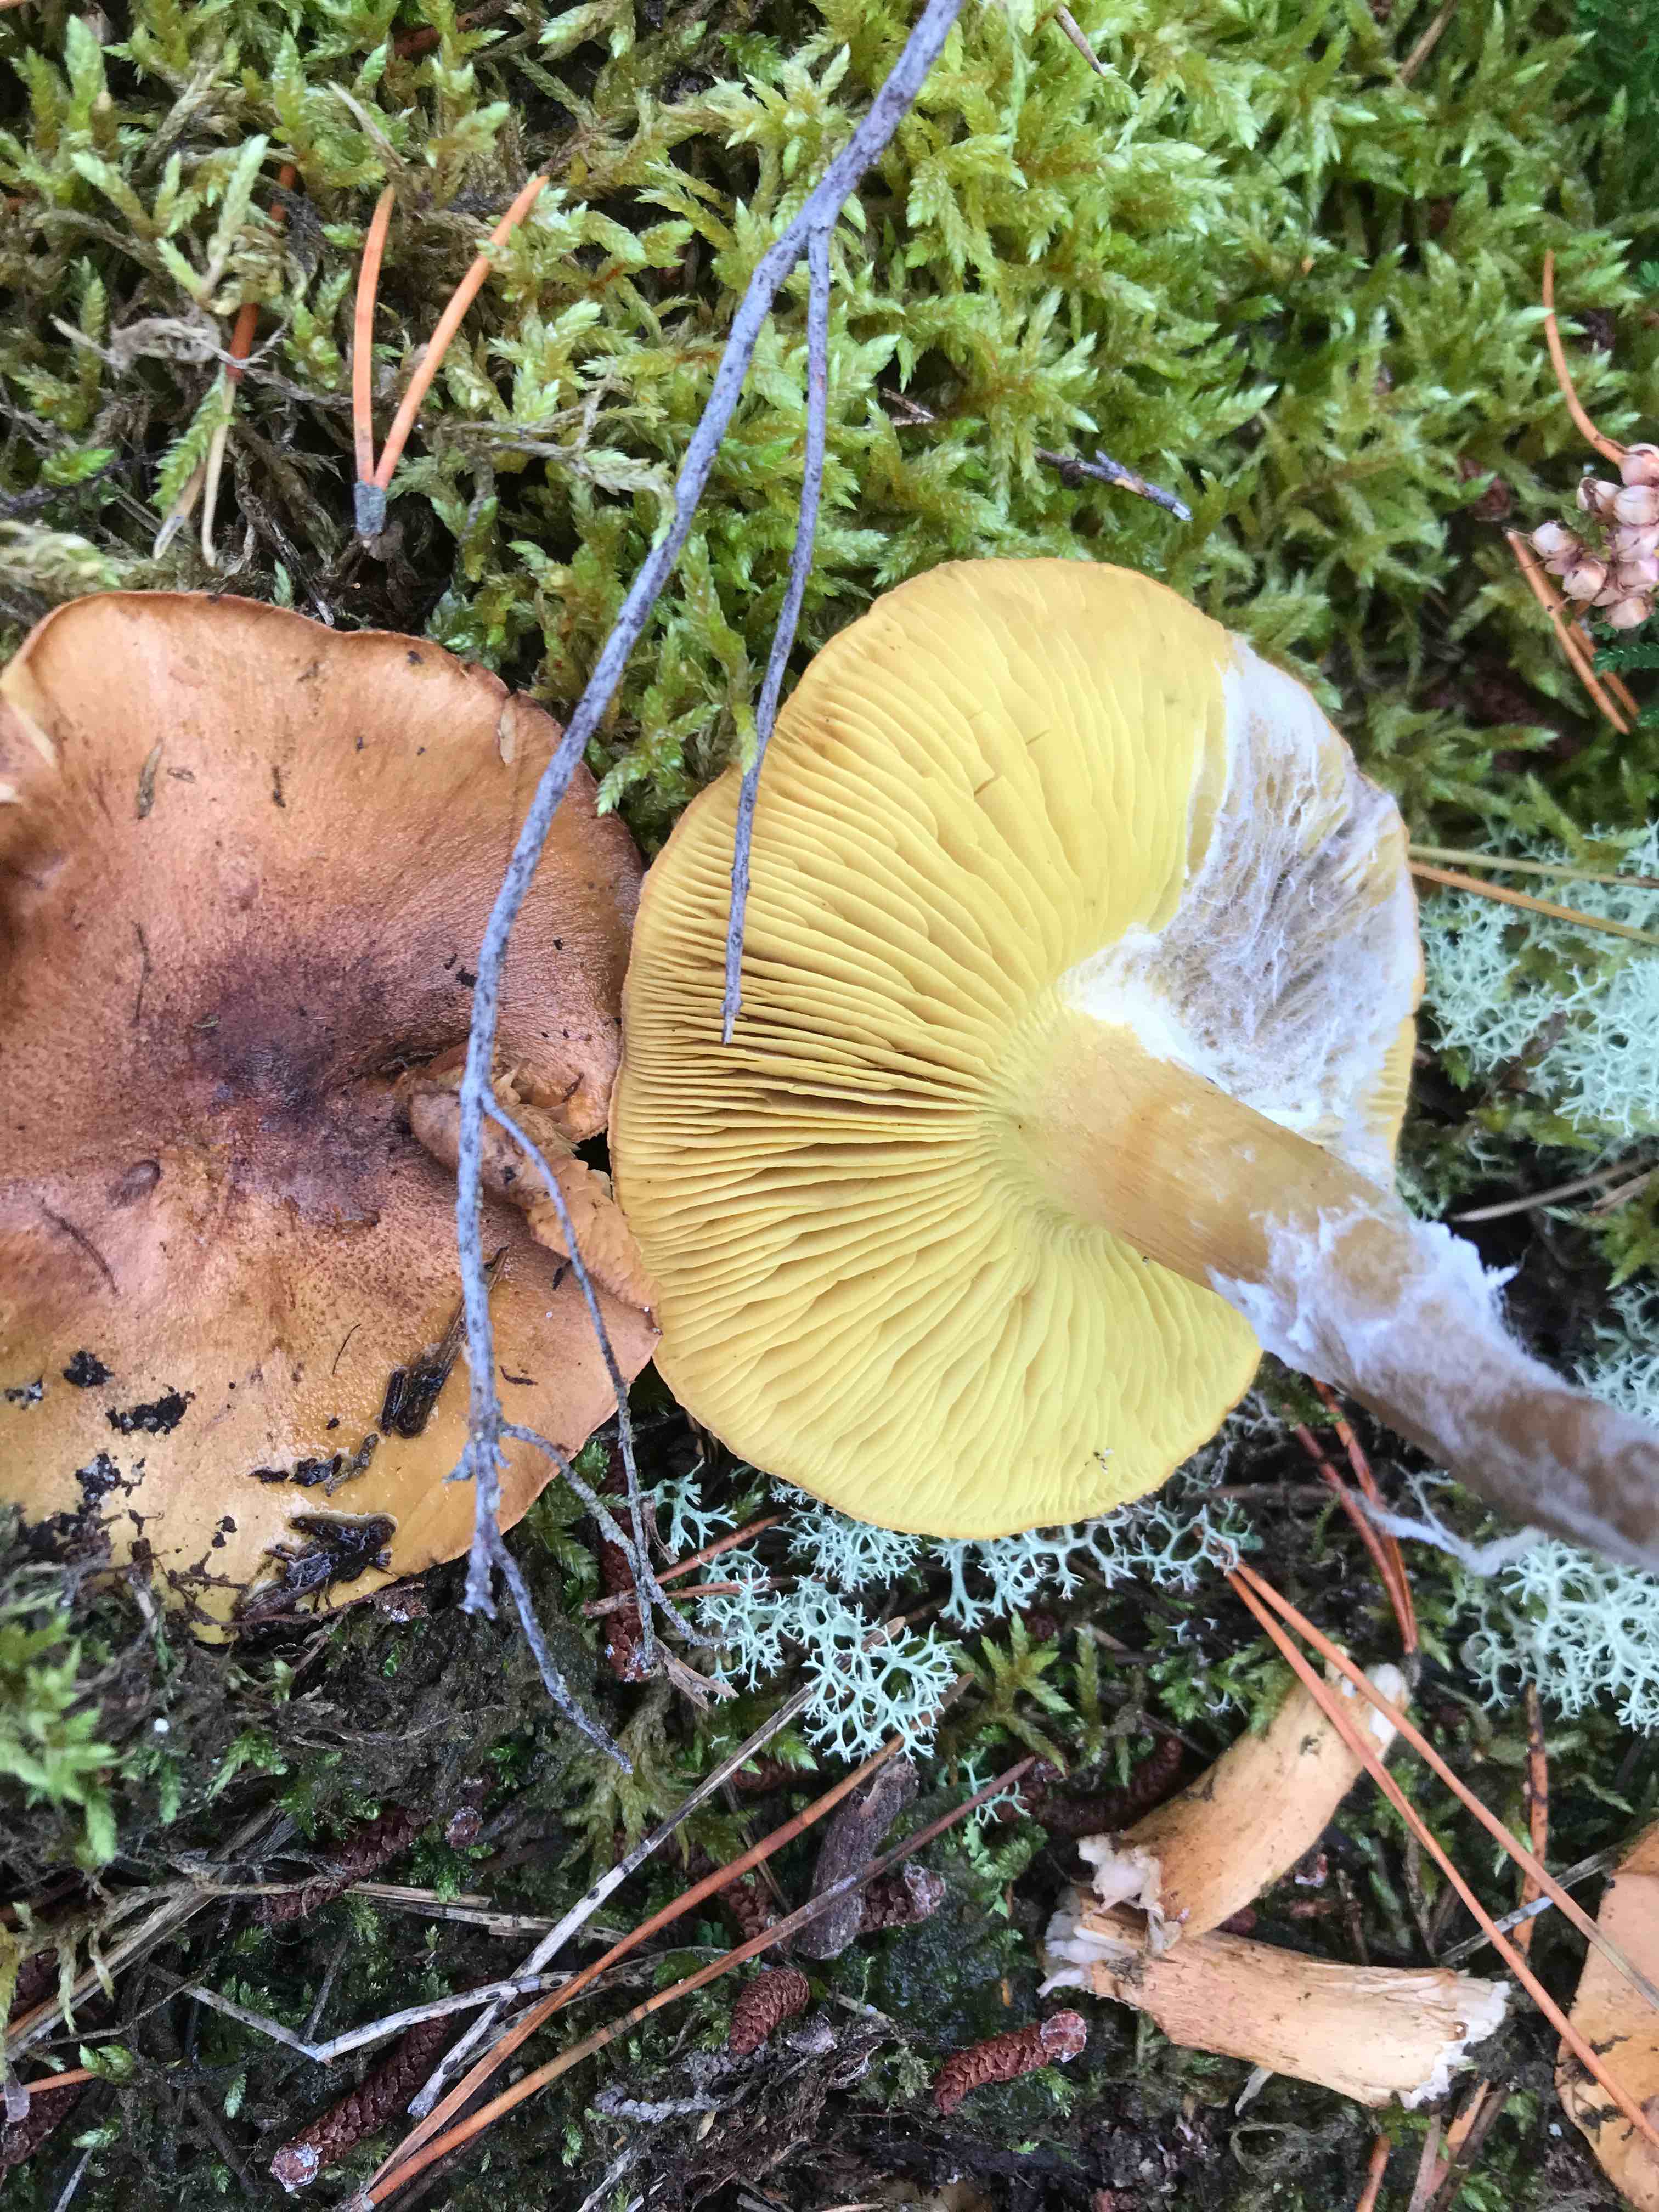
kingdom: Fungi
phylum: Basidiomycota
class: Agaricomycetes
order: Agaricales
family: Tricholomataceae
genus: Tricholoma
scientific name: Tricholoma equestre
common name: ægte ridderhat
